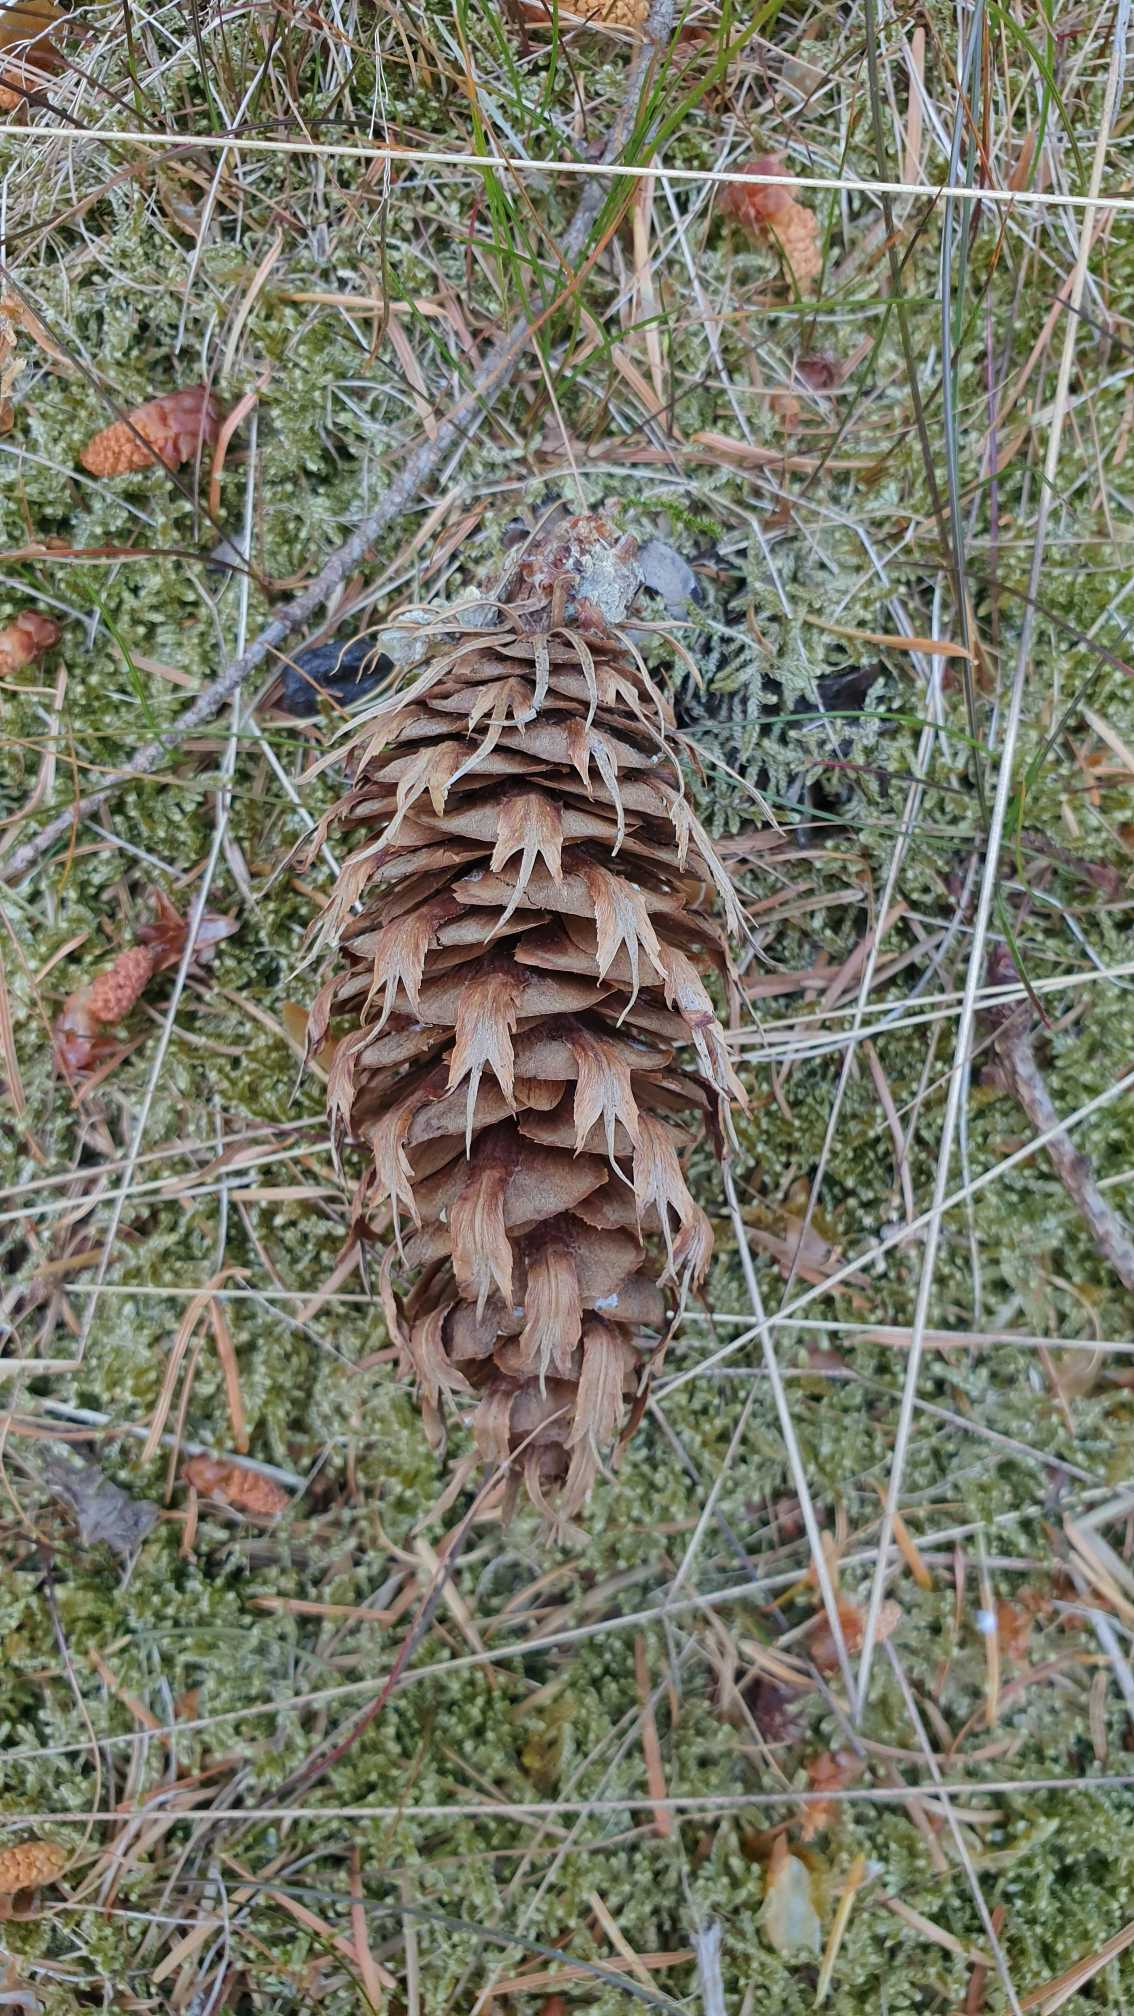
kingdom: Plantae
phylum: Tracheophyta
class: Pinopsida
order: Pinales
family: Pinaceae
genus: Pseudotsuga
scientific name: Pseudotsuga menziesii
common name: Douglasgran
